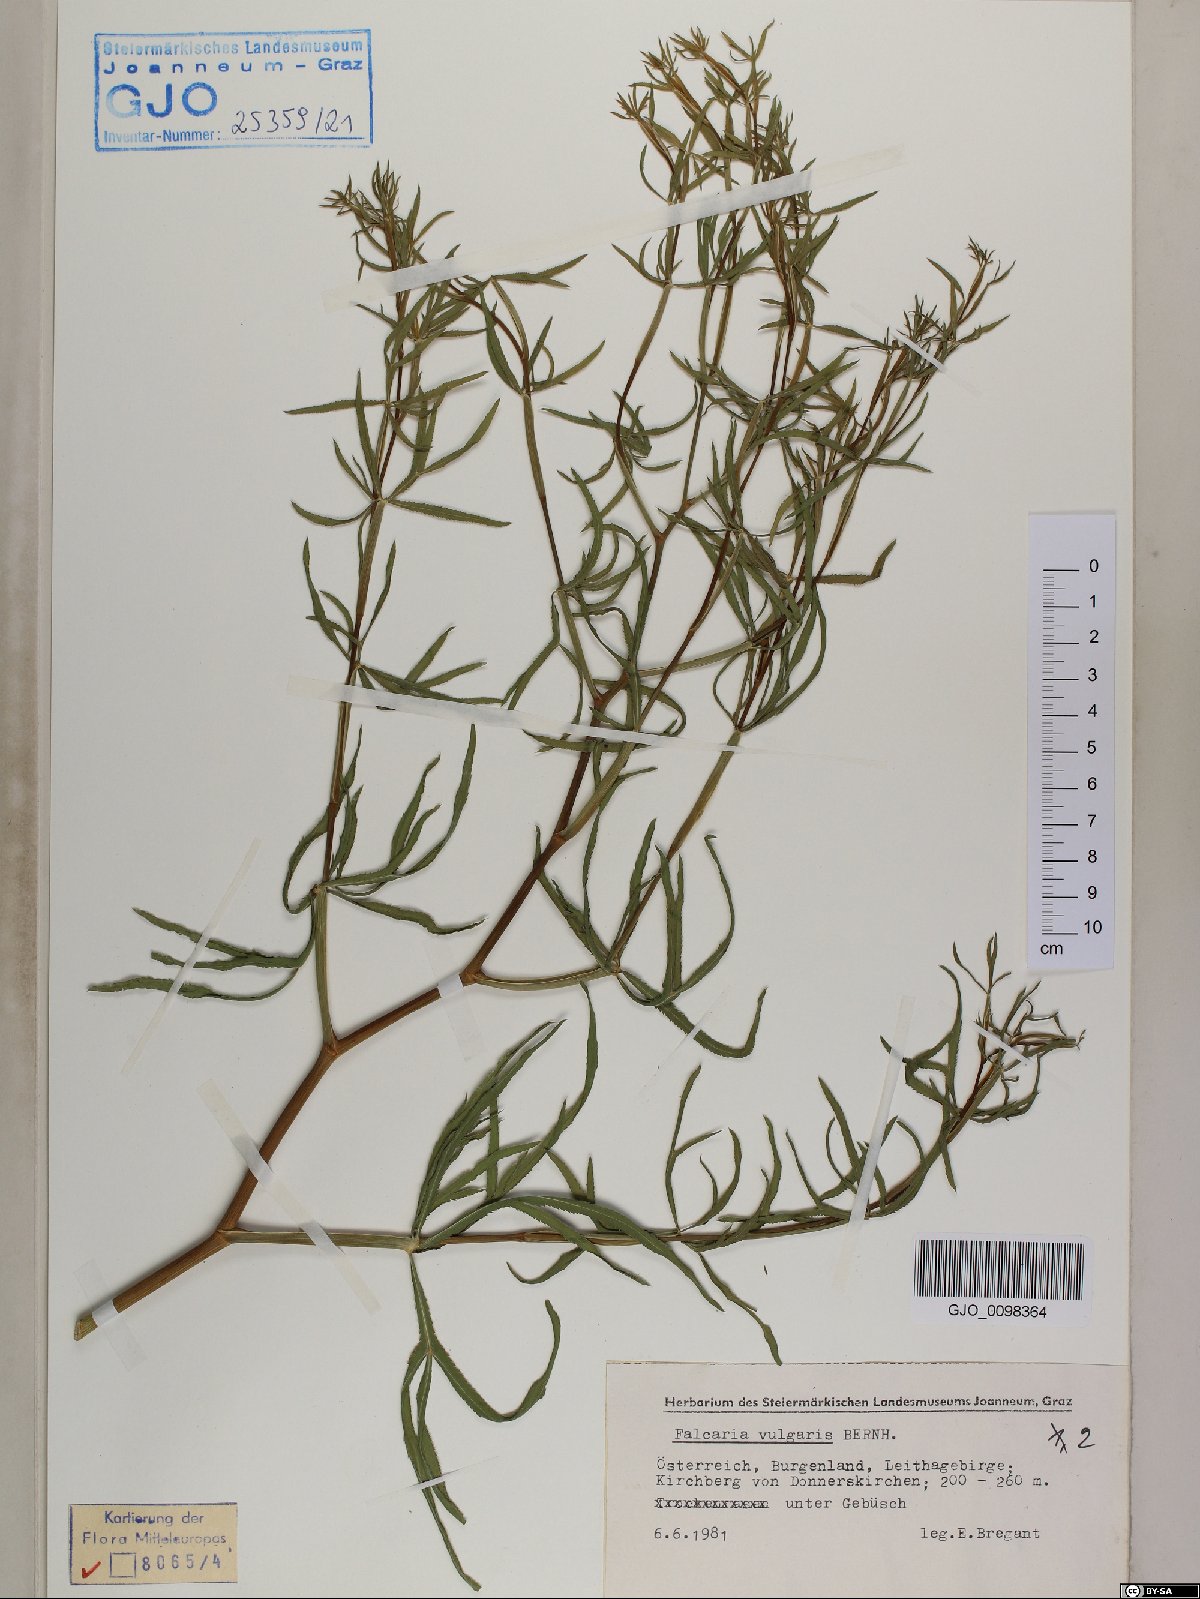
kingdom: Plantae
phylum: Tracheophyta
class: Magnoliopsida
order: Apiales
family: Apiaceae
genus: Falcaria
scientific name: Falcaria vulgaris
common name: Longleaf
